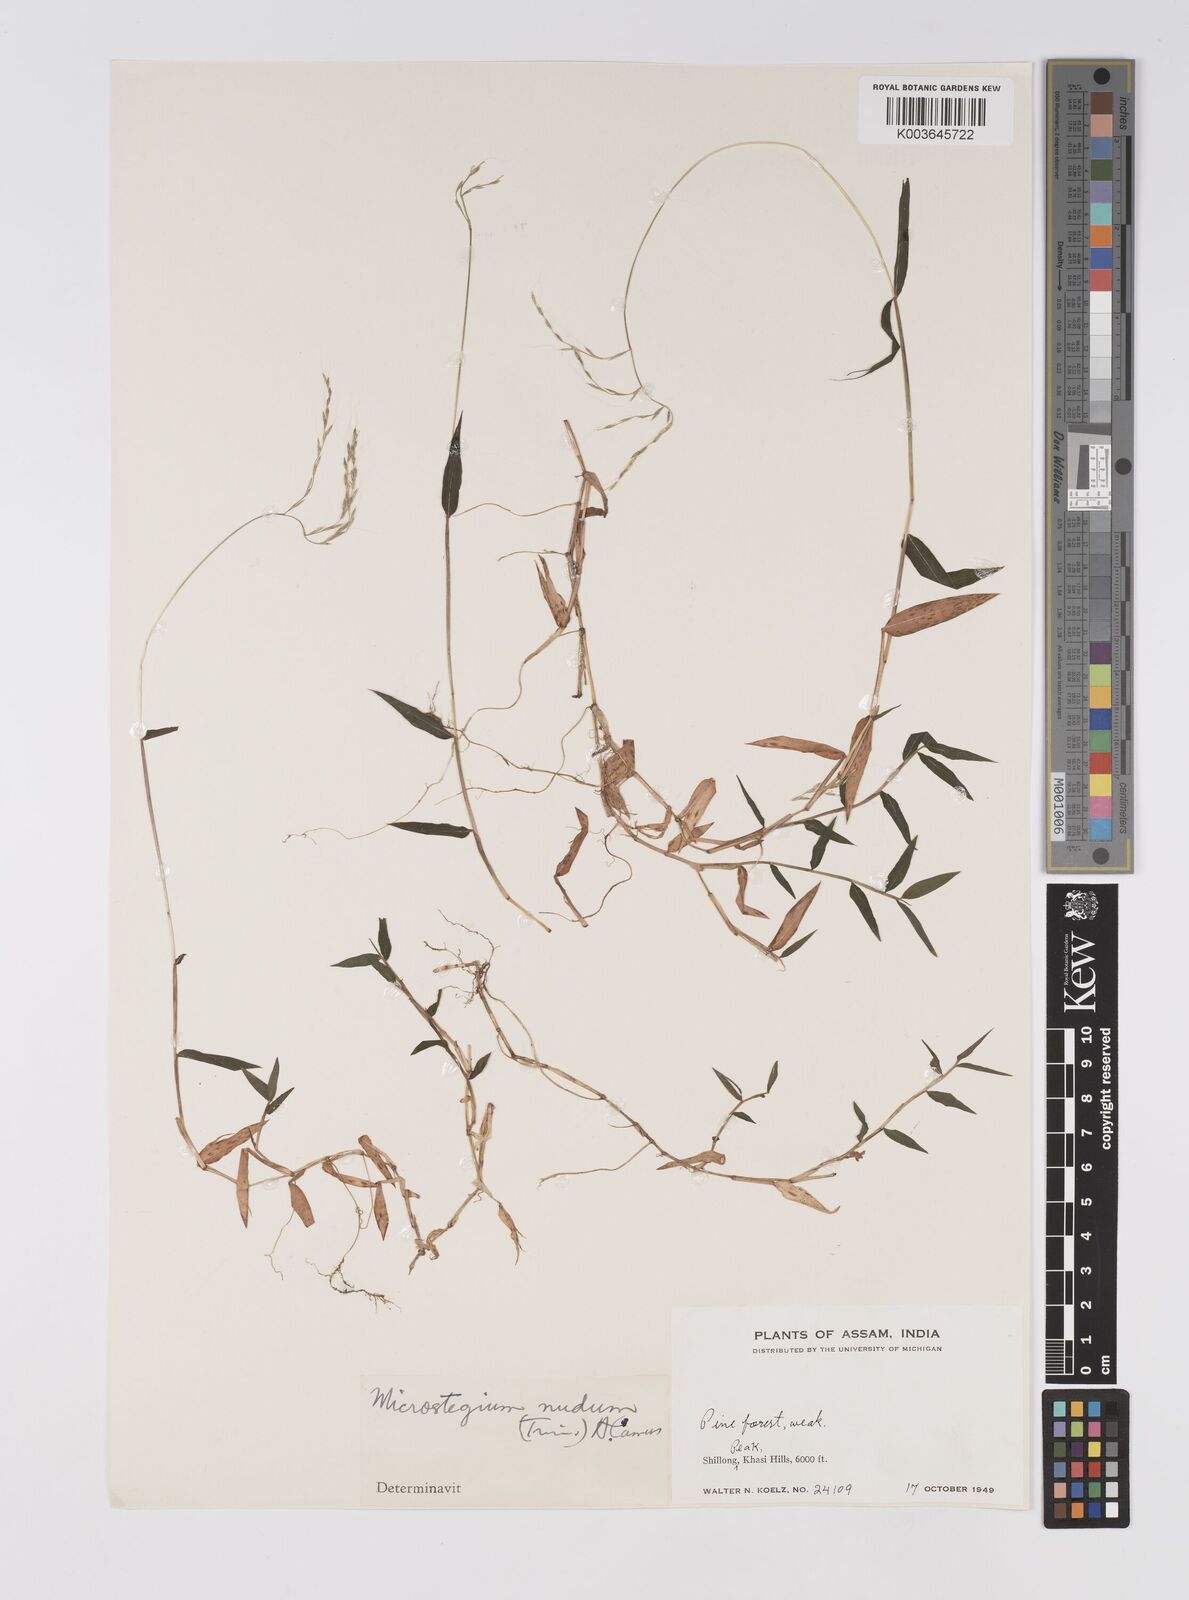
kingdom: Plantae
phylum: Tracheophyta
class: Liliopsida
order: Poales
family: Poaceae
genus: Microstegium
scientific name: Microstegium nudum
